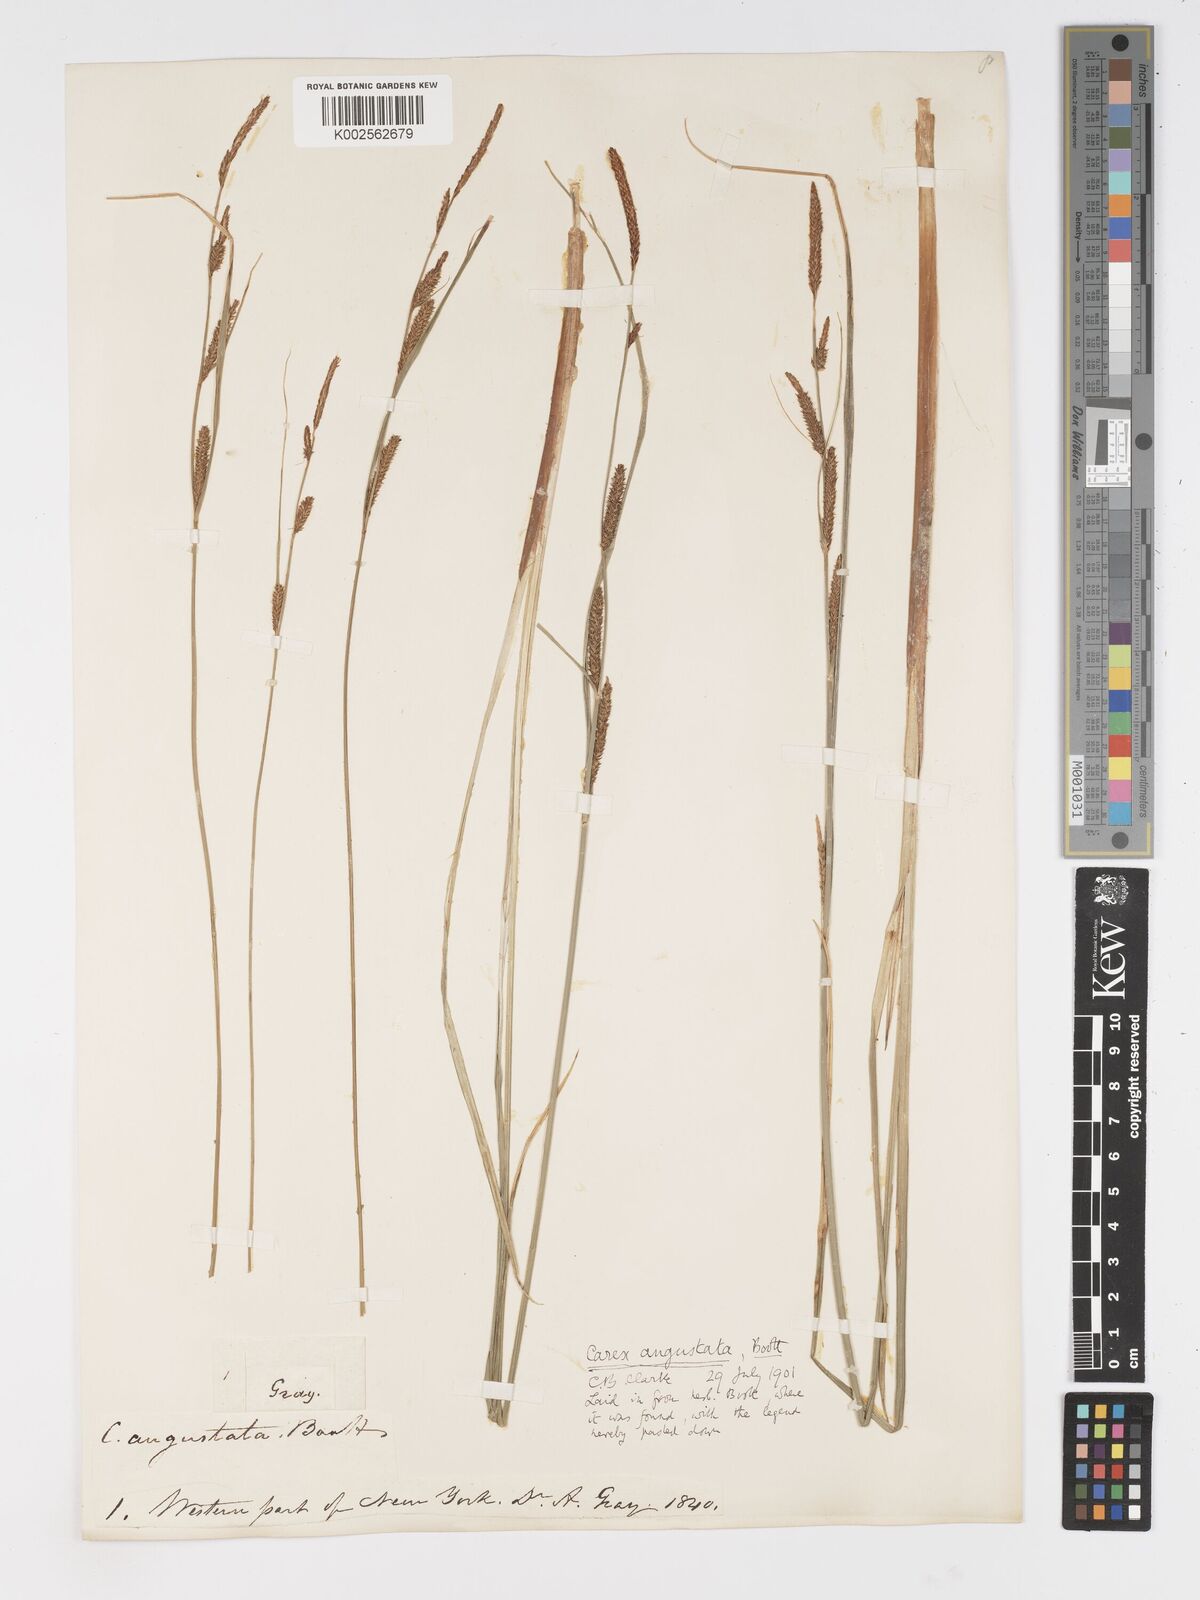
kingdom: Plantae
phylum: Tracheophyta
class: Liliopsida
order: Poales
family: Cyperaceae
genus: Carex
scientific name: Carex stricta
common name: Hummock sedge
